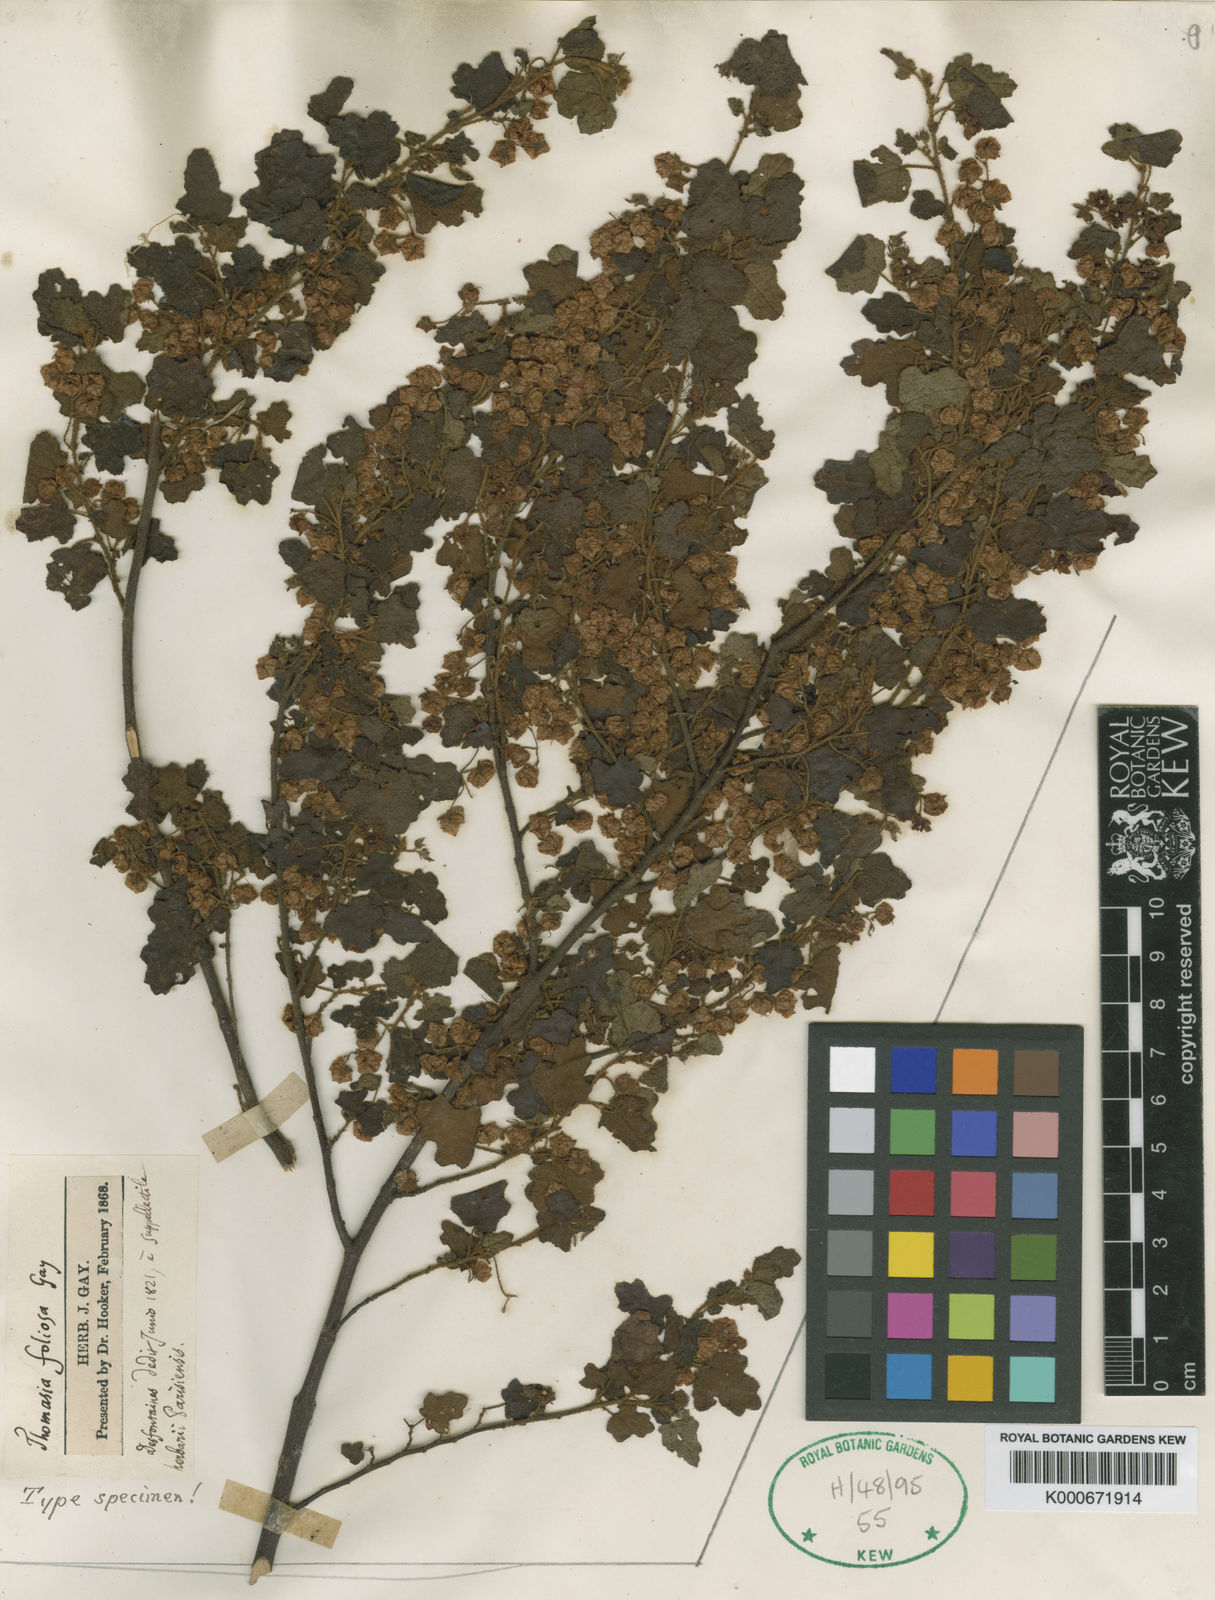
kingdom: Plantae
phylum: Tracheophyta
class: Magnoliopsida
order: Malvales
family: Malvaceae
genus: Thomasia
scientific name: Thomasia foliosa
